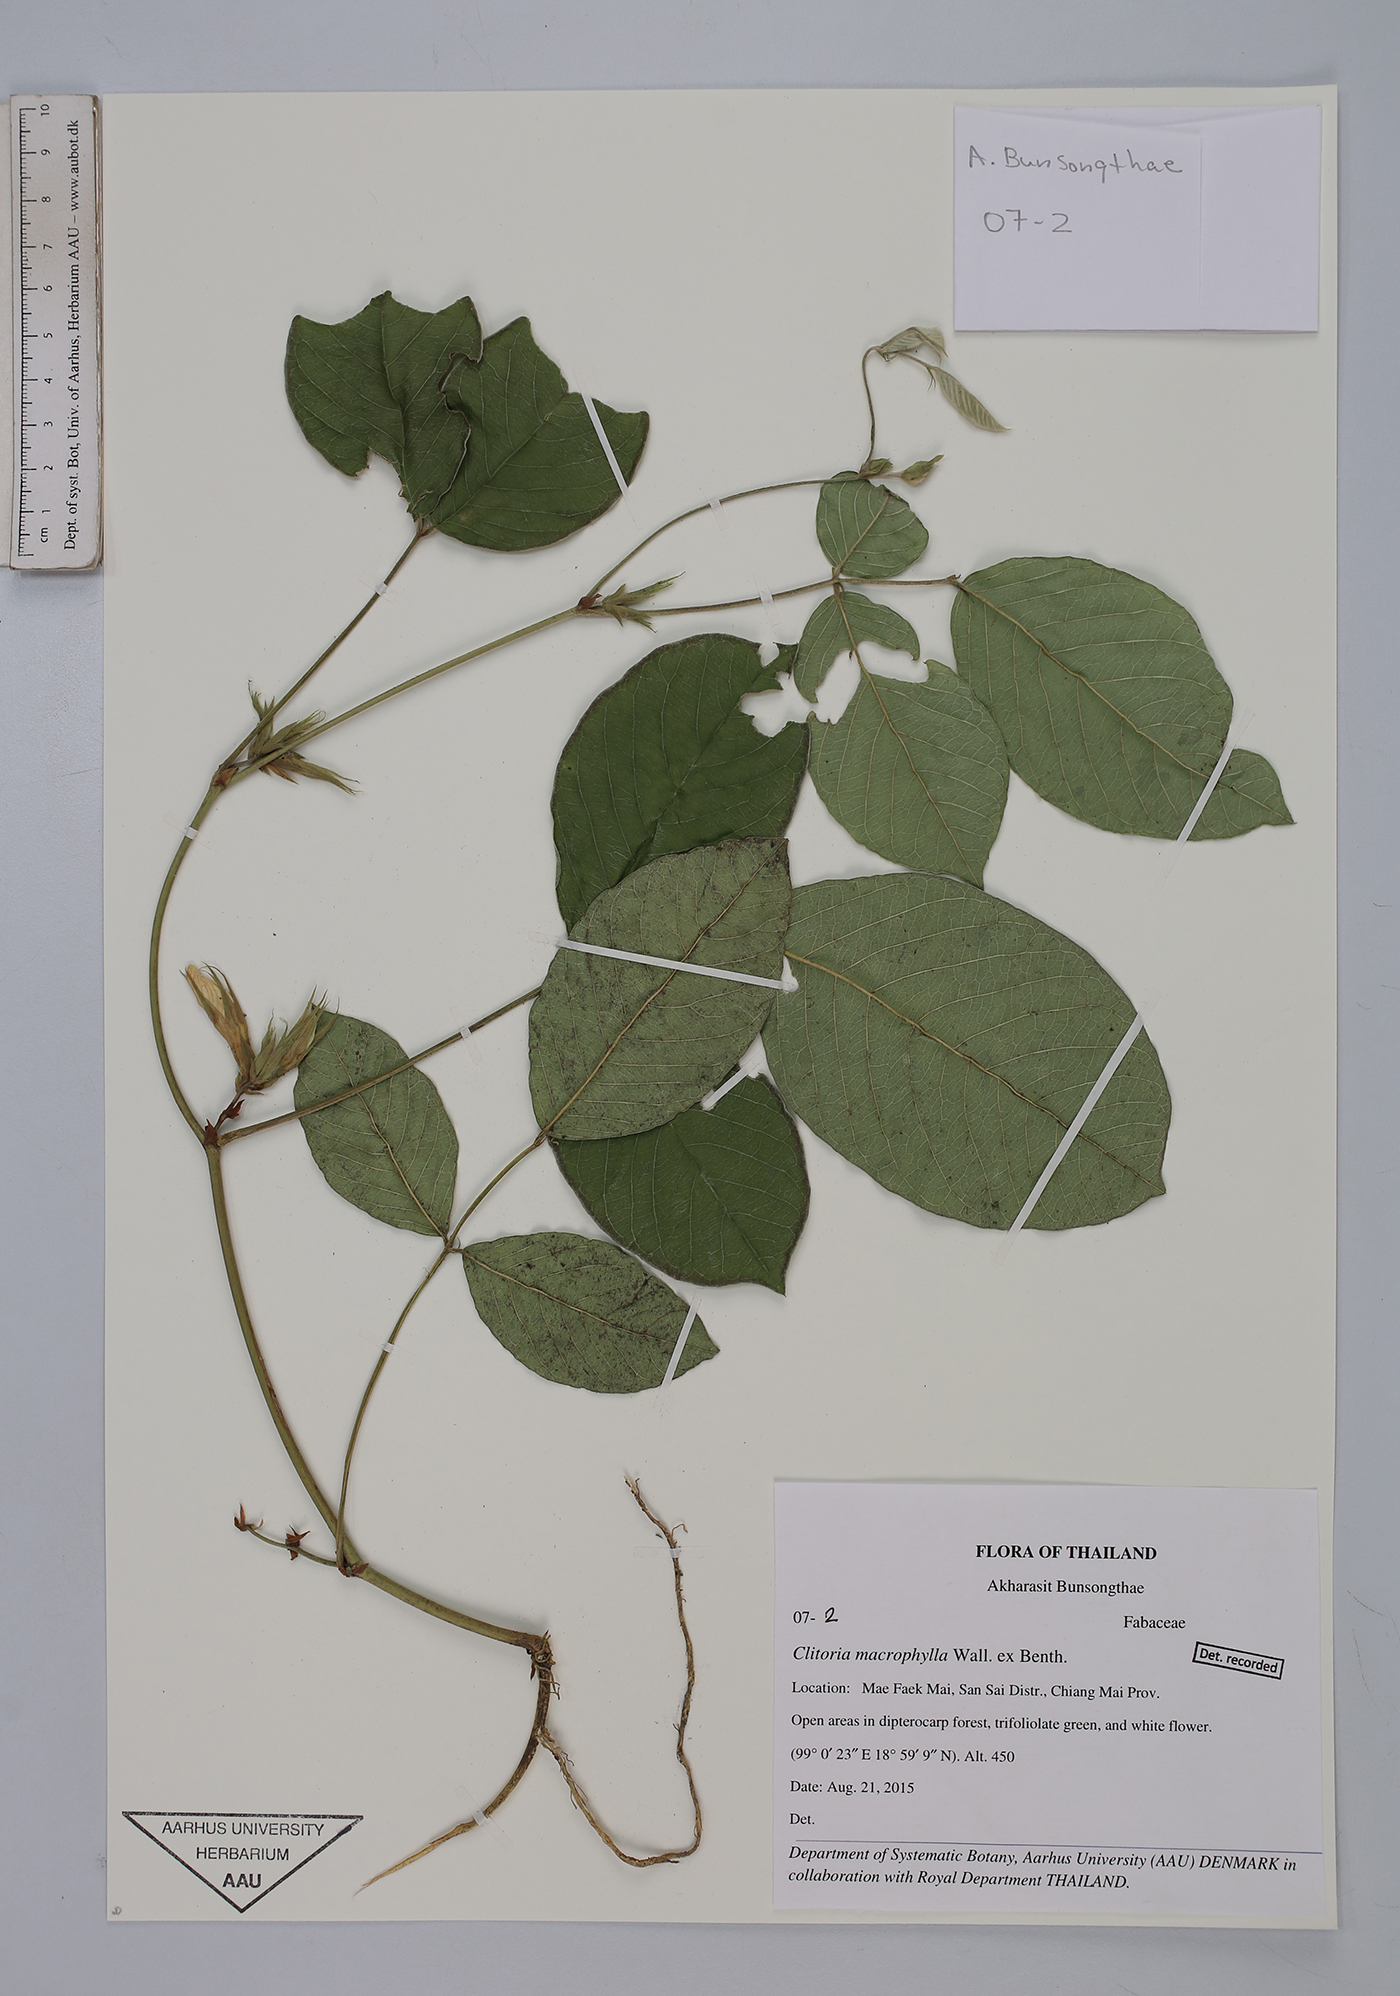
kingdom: Plantae
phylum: Tracheophyta
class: Magnoliopsida
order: Fabales
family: Fabaceae
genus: Clitoria
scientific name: Clitoria macrophylla
